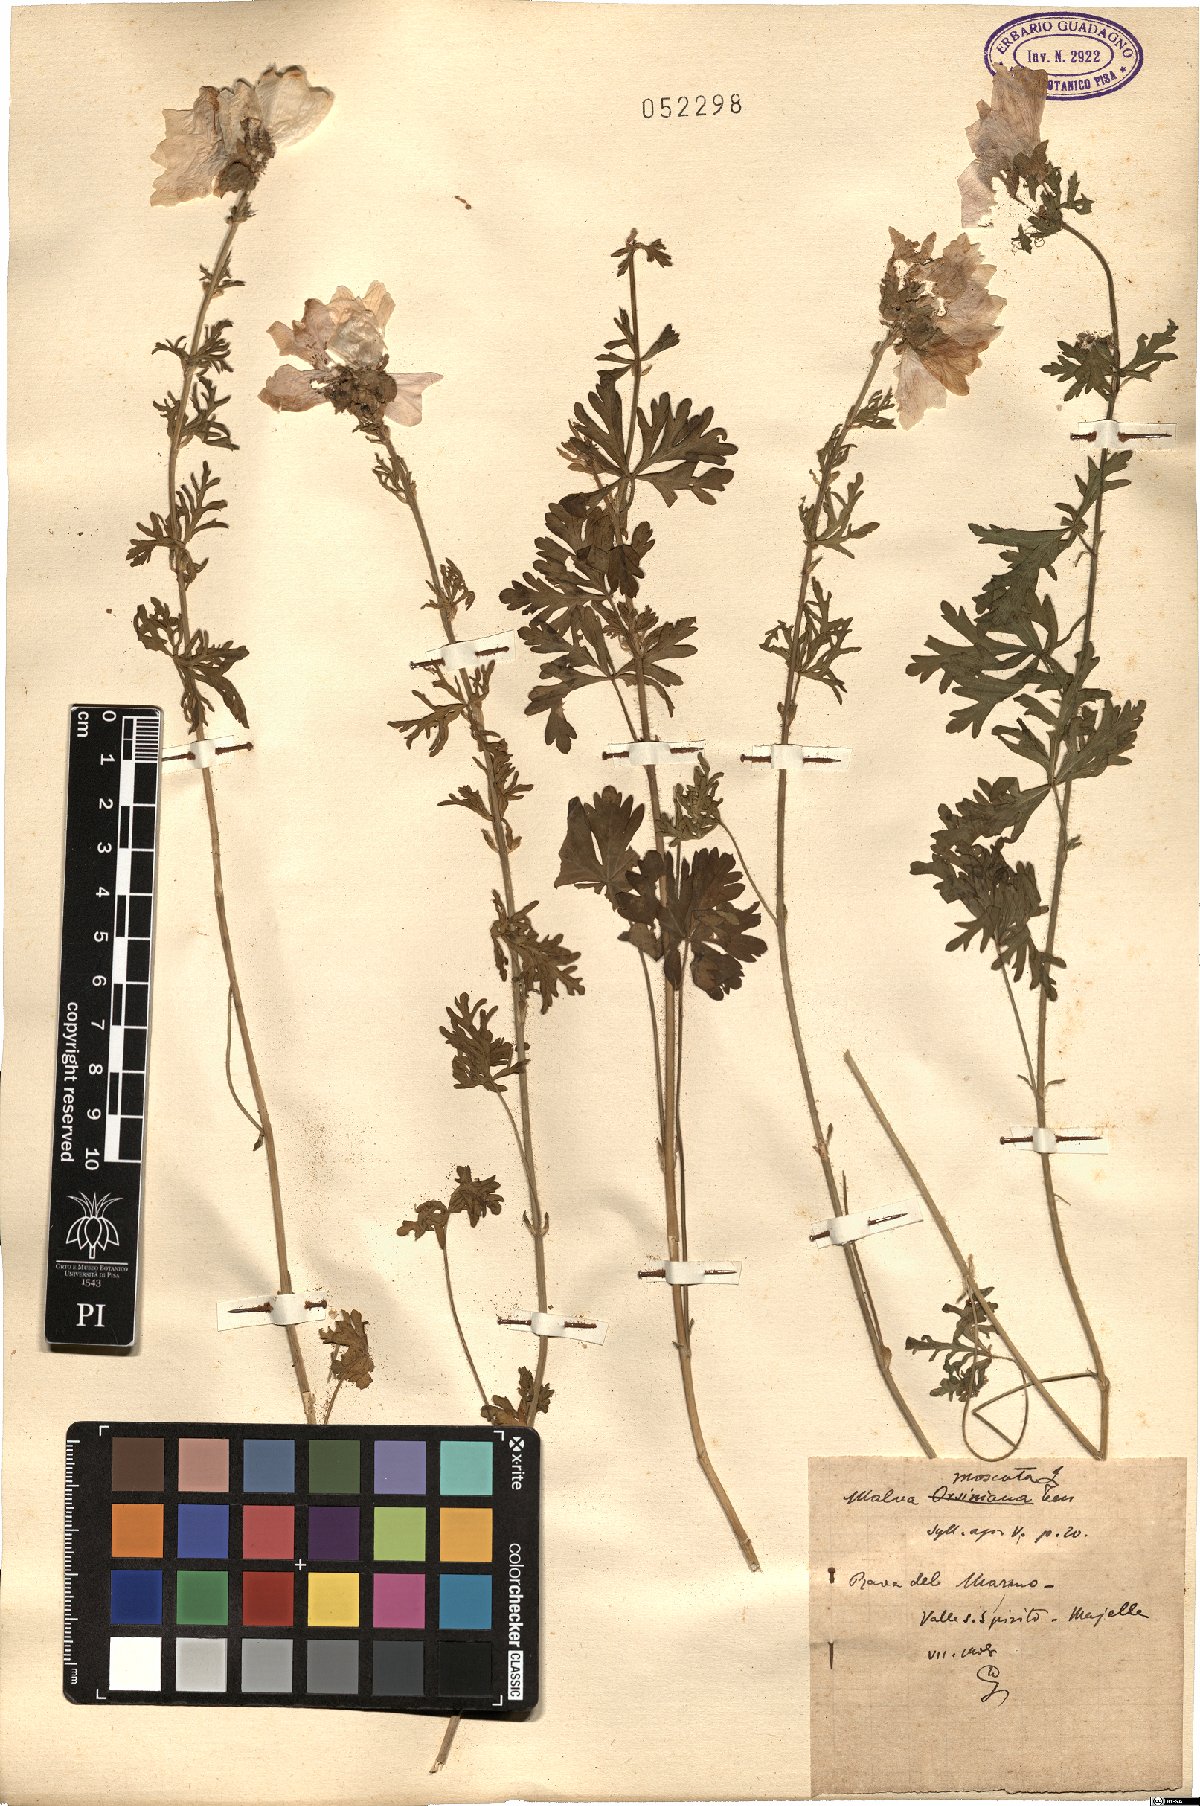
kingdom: Plantae
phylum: Tracheophyta
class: Magnoliopsida
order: Malvales
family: Malvaceae
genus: Malva
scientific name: Malva moschata
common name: Musk mallow
